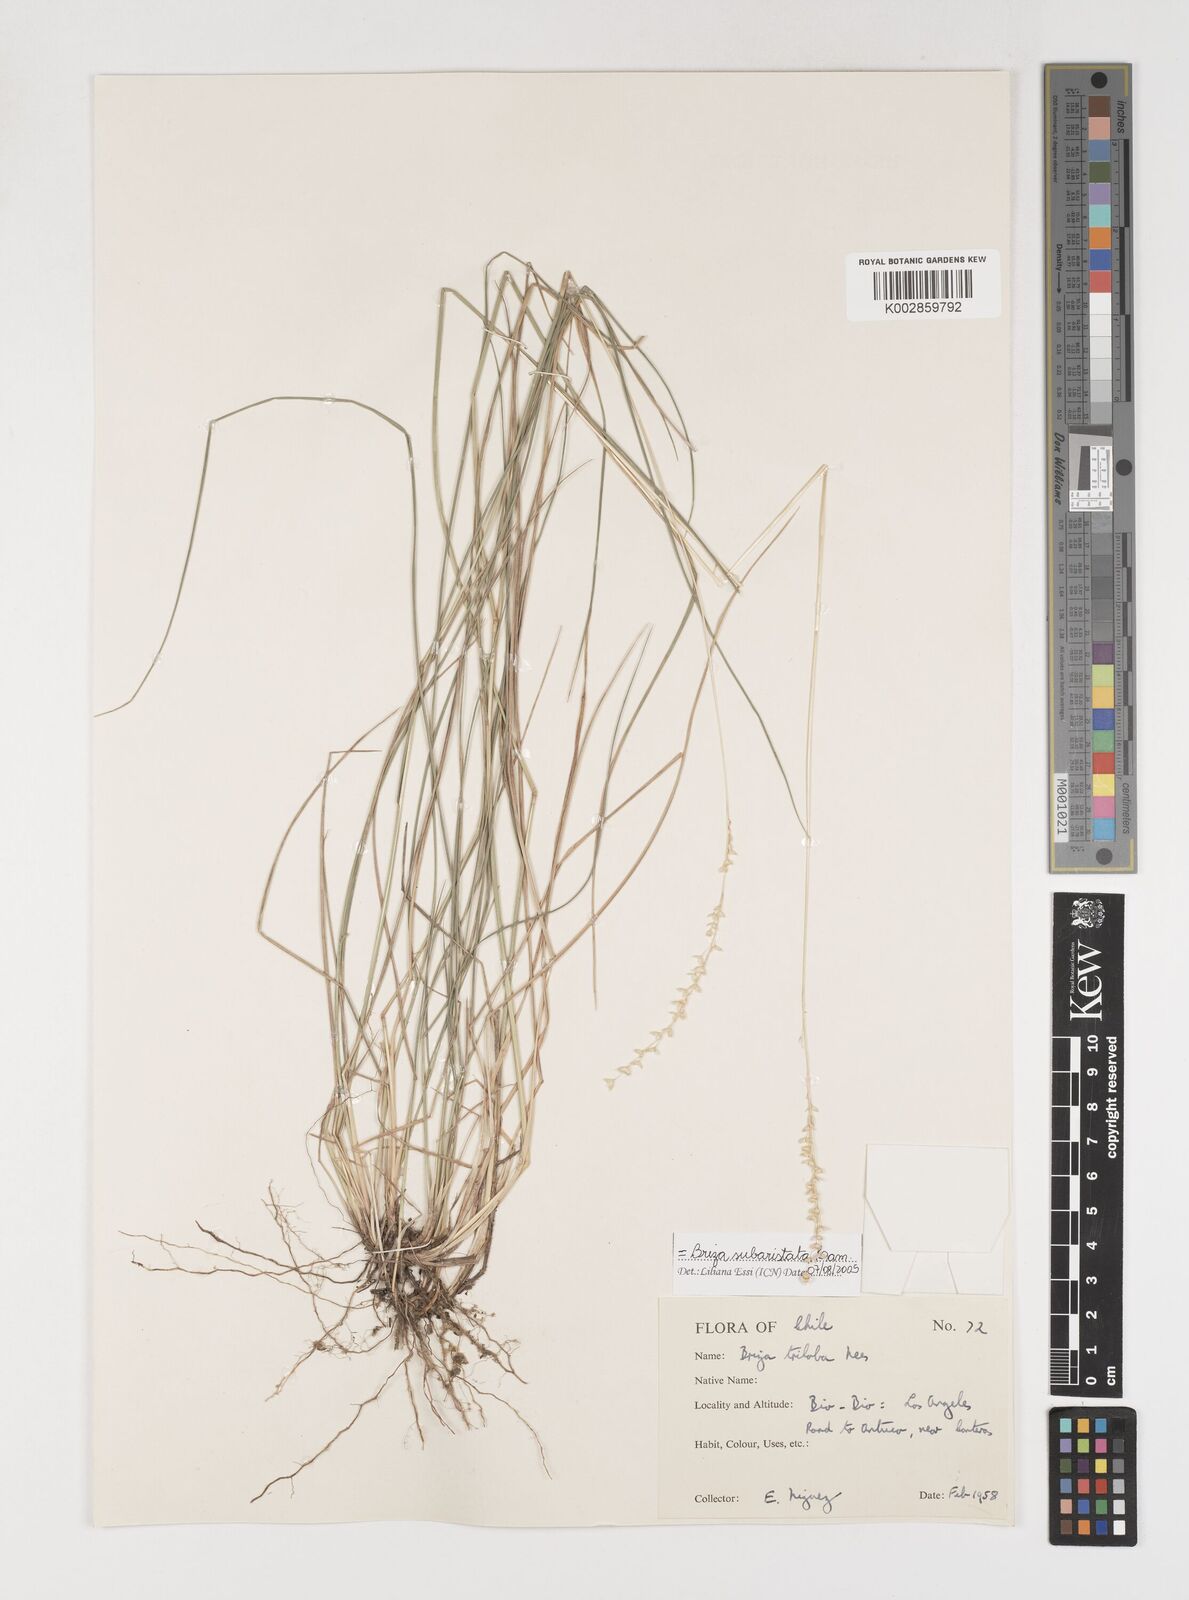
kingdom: Plantae
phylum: Tracheophyta
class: Liliopsida
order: Poales
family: Poaceae
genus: Chascolytrum
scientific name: Chascolytrum subaristatum
